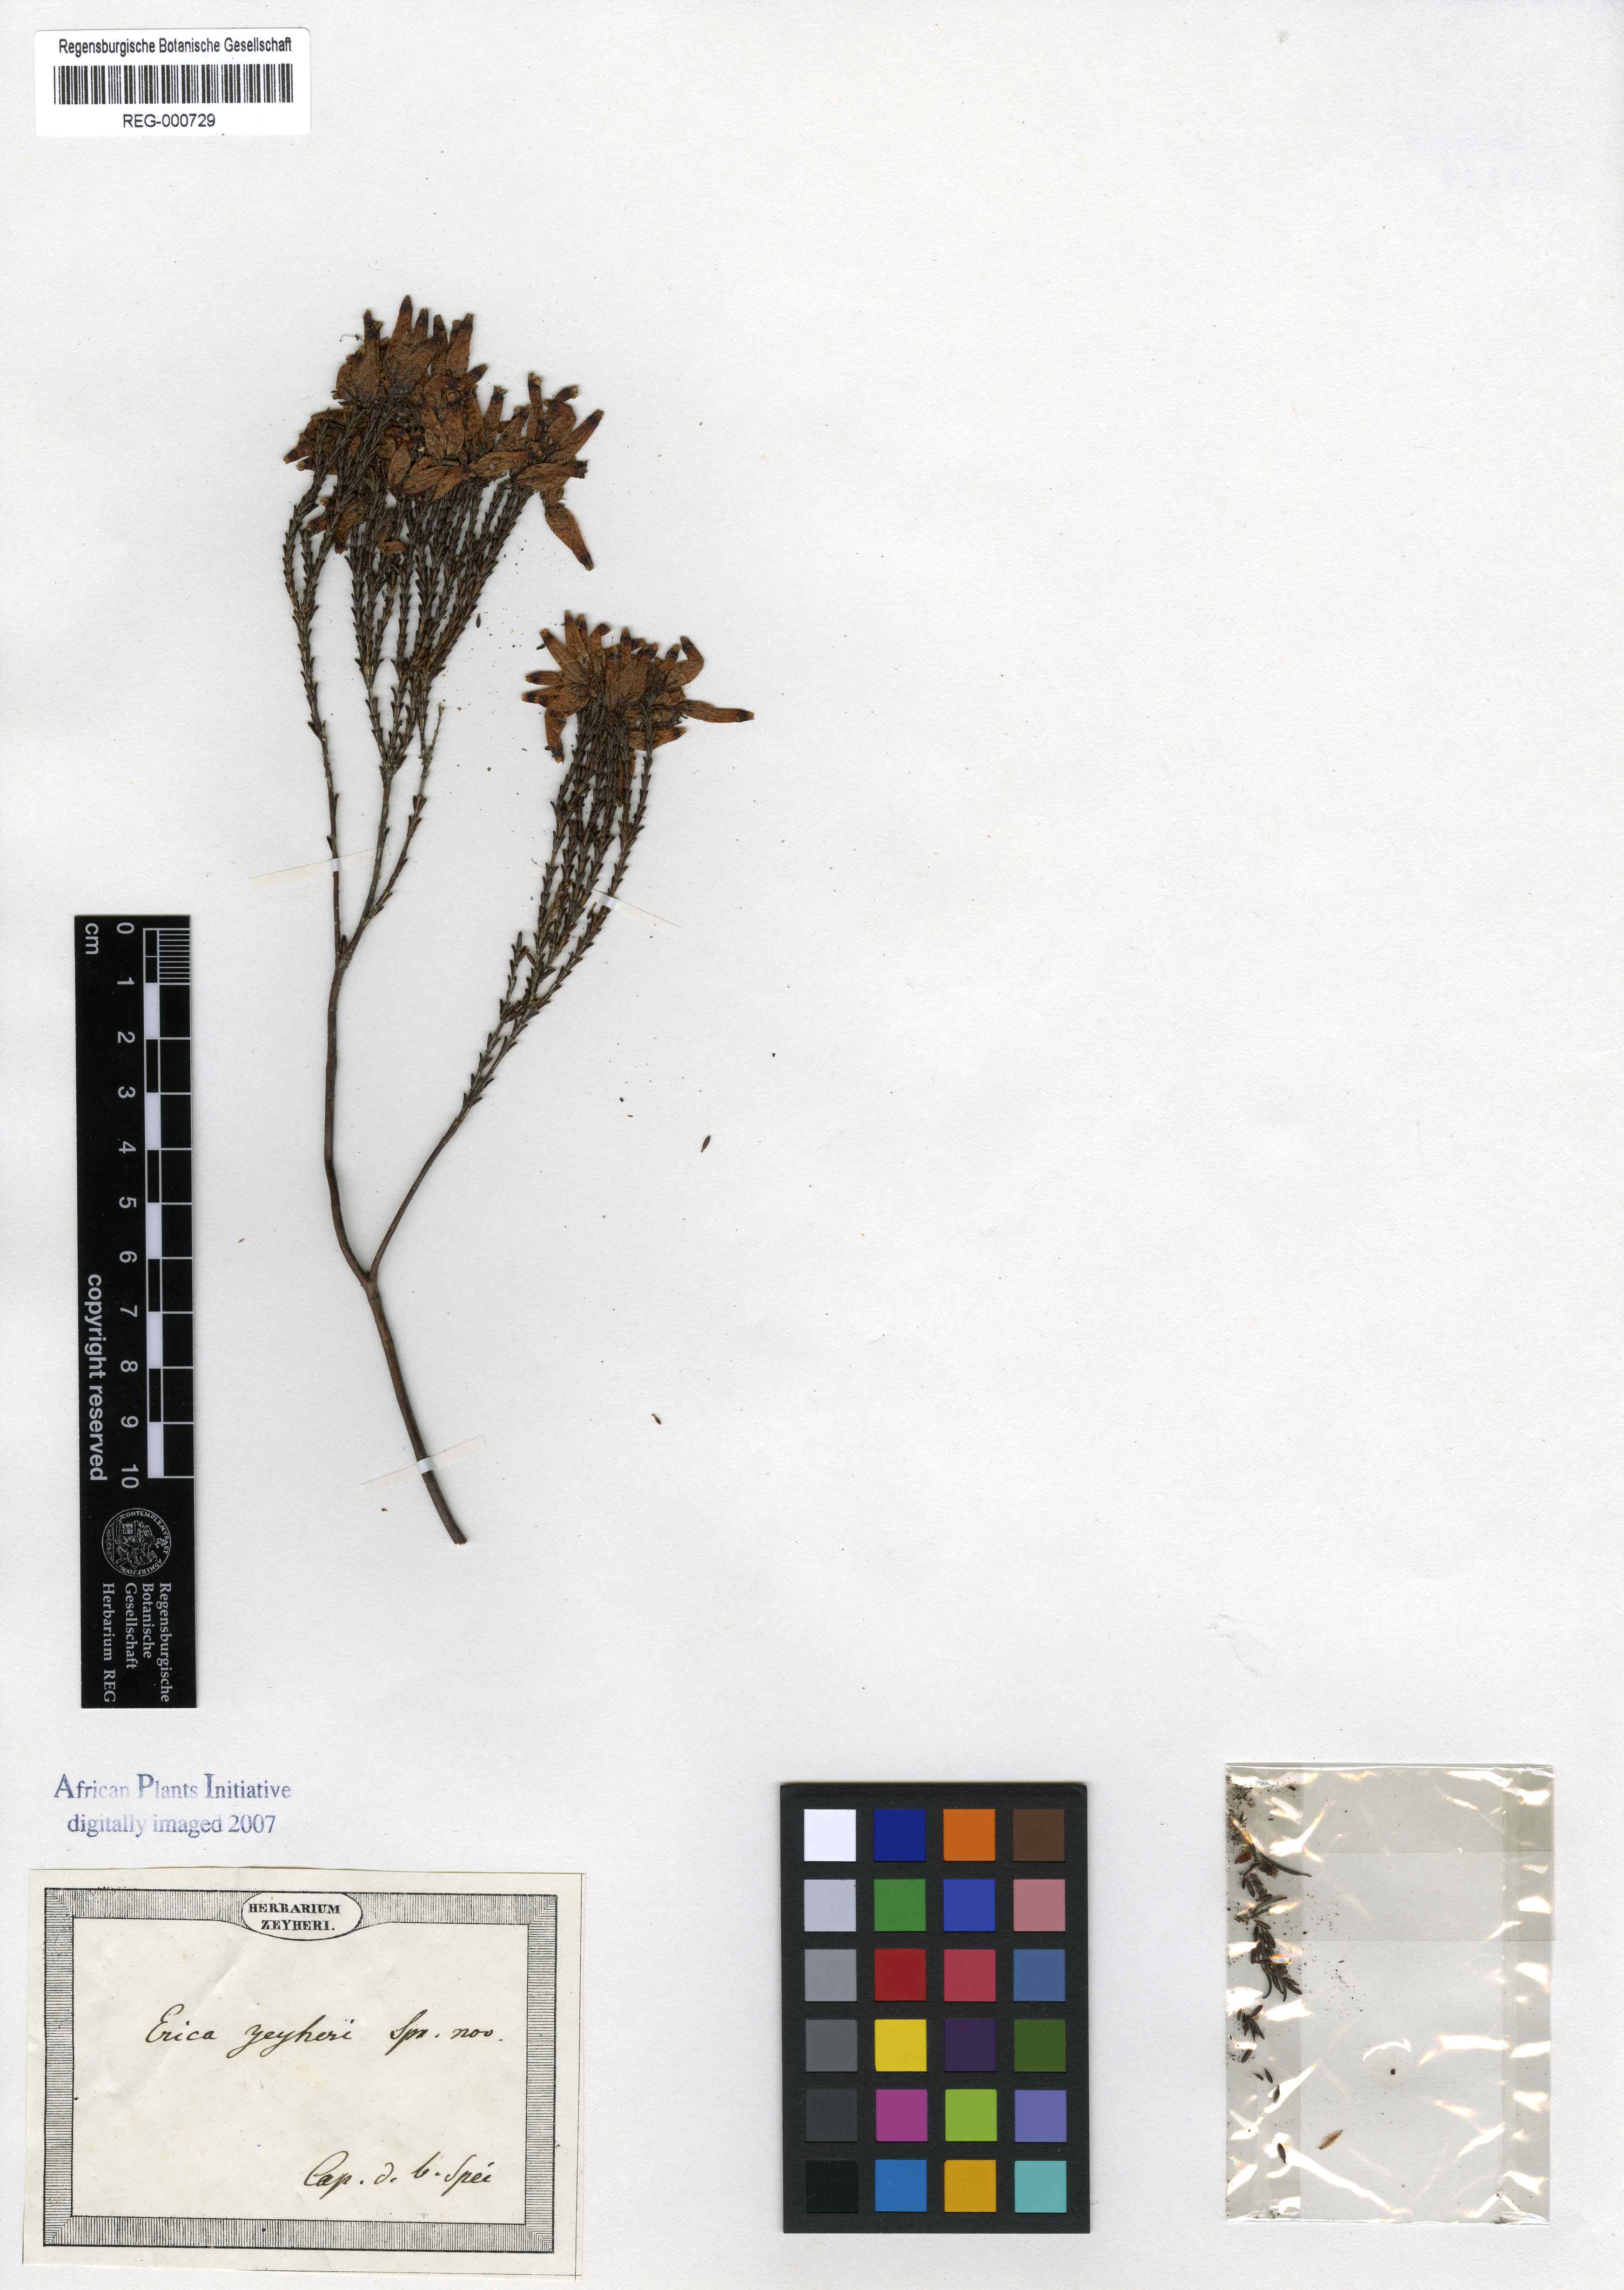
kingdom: Plantae
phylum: Tracheophyta
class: Magnoliopsida
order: Ericales
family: Ericaceae
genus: Erica
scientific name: Erica curvifolia
